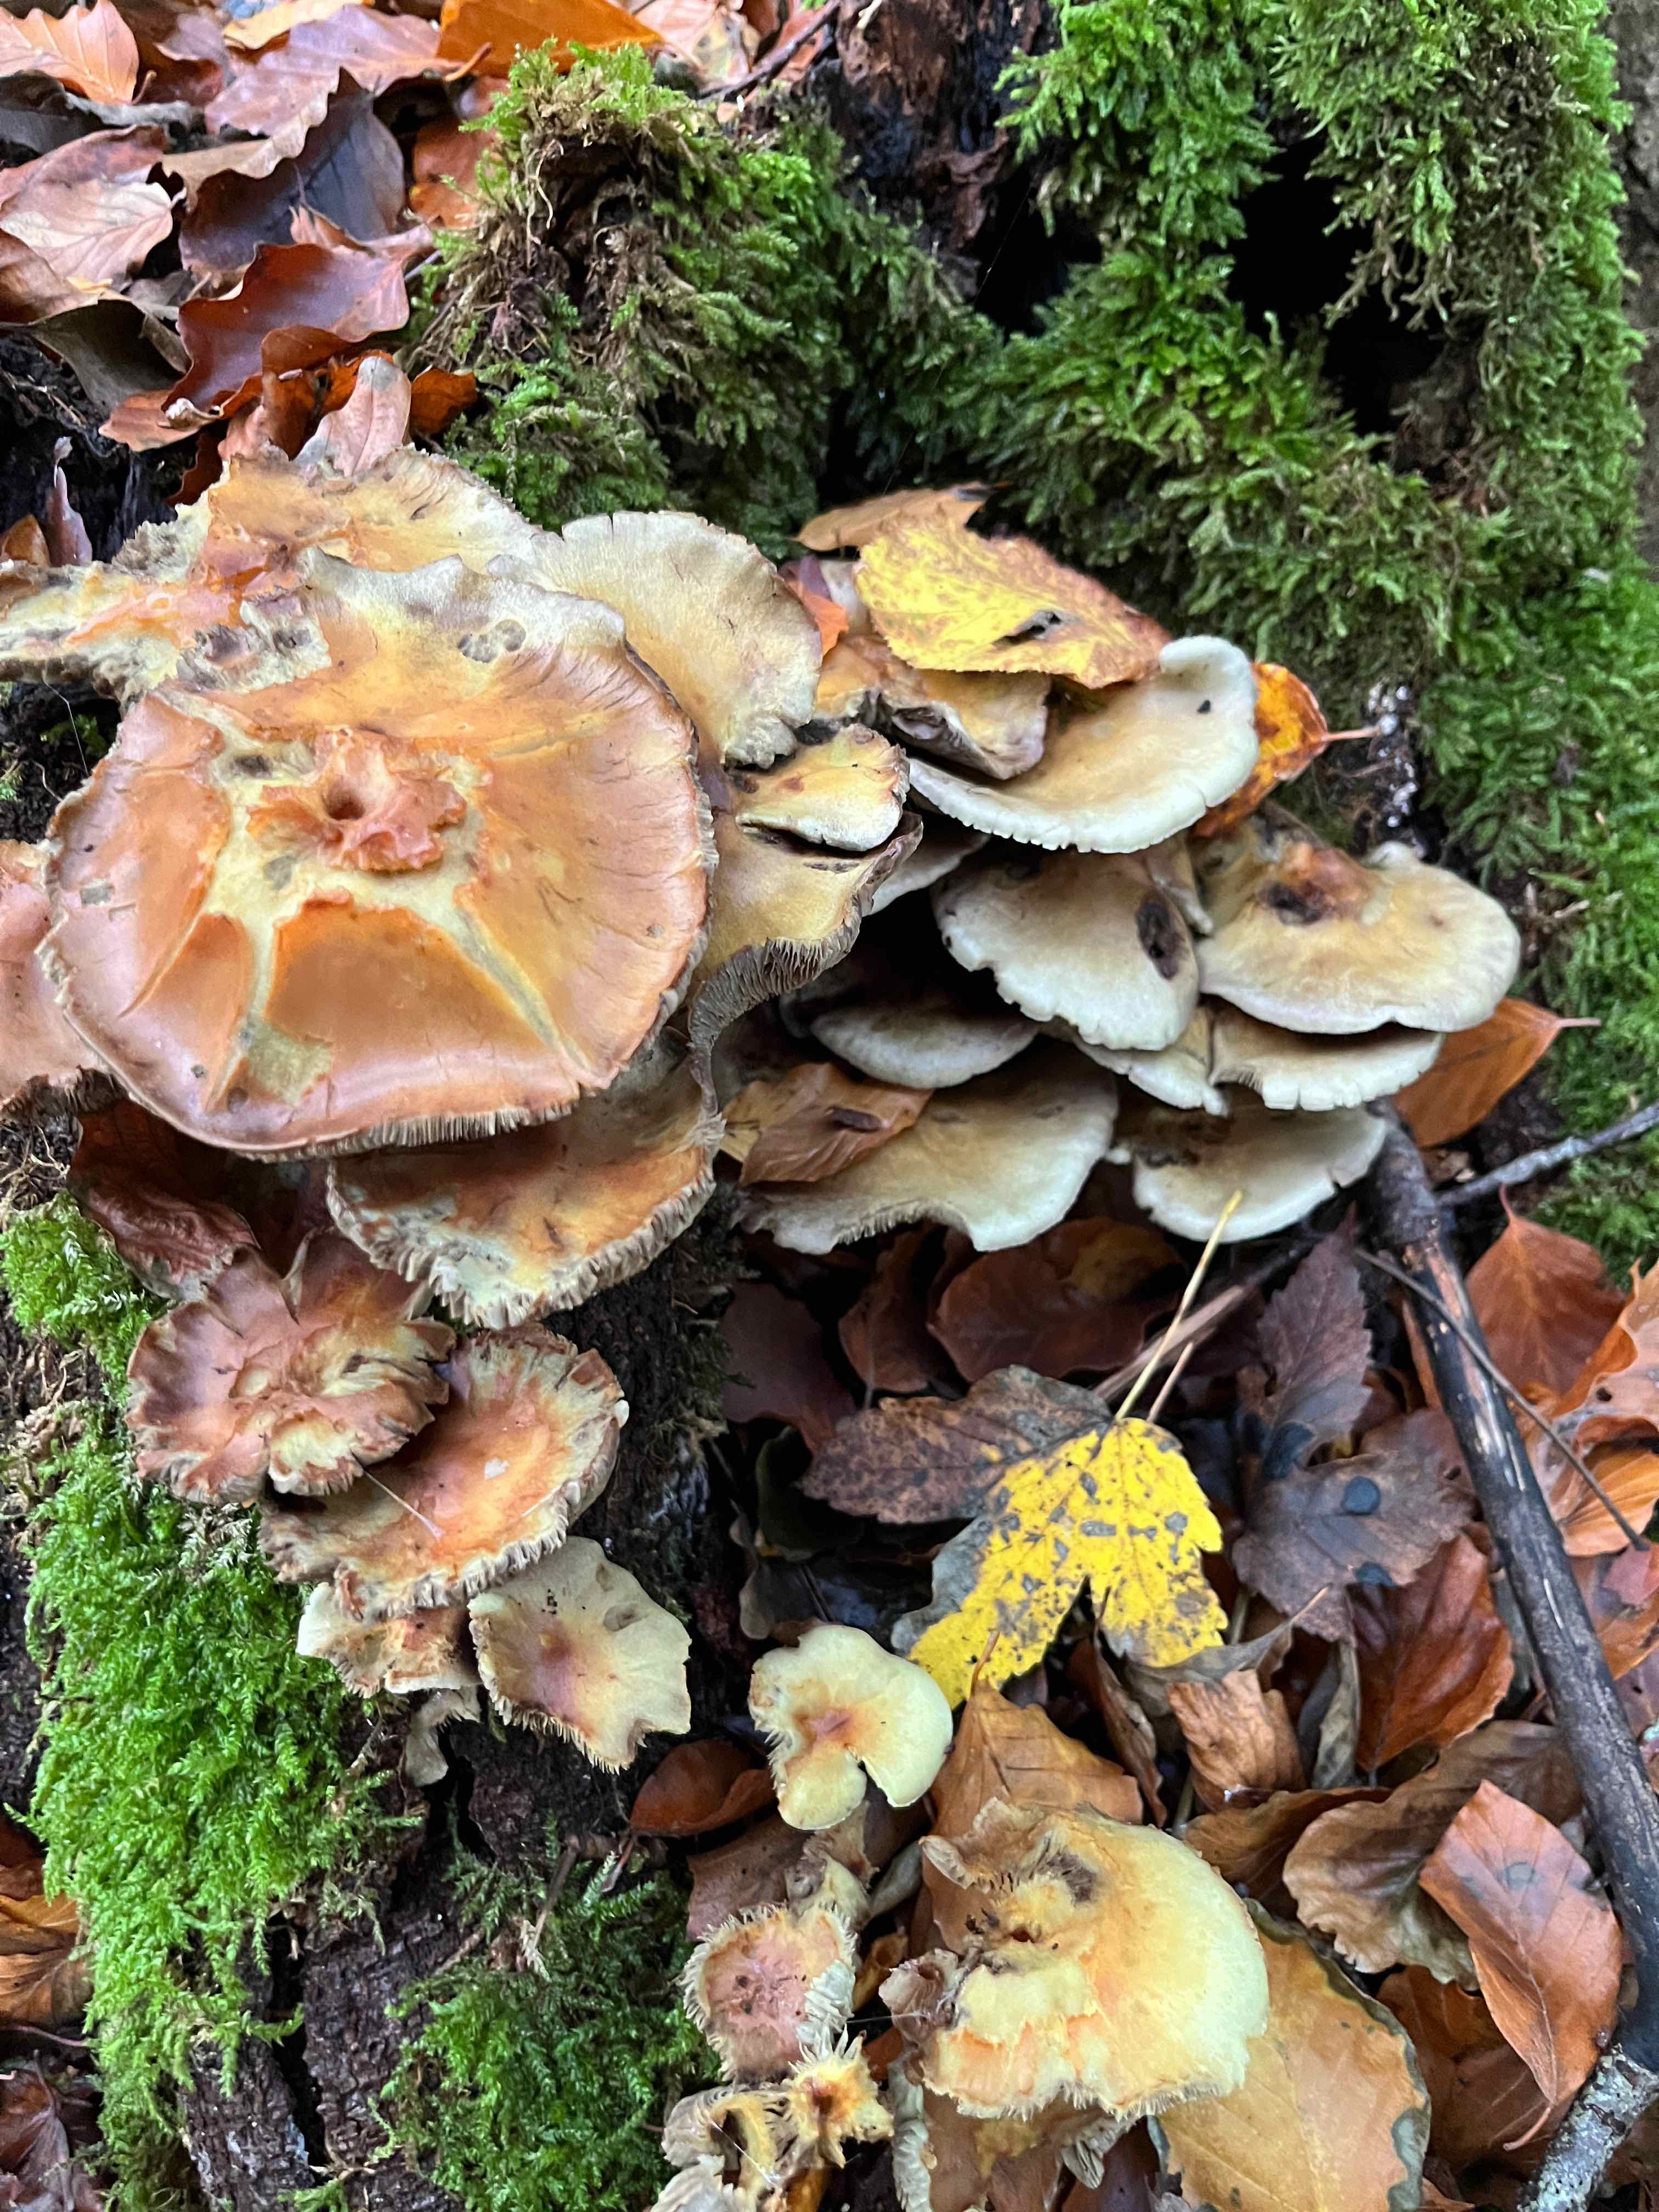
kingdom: Fungi
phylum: Basidiomycota
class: Agaricomycetes
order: Agaricales
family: Strophariaceae
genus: Hypholoma
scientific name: Hypholoma fasciculare
